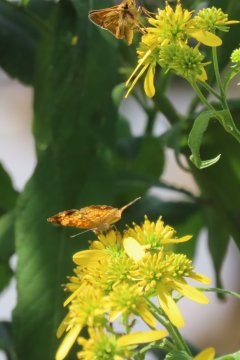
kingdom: Animalia
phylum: Arthropoda
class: Insecta
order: Lepidoptera
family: Nymphalidae
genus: Phyciodes
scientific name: Phyciodes tharos
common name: Pearl Crescent
